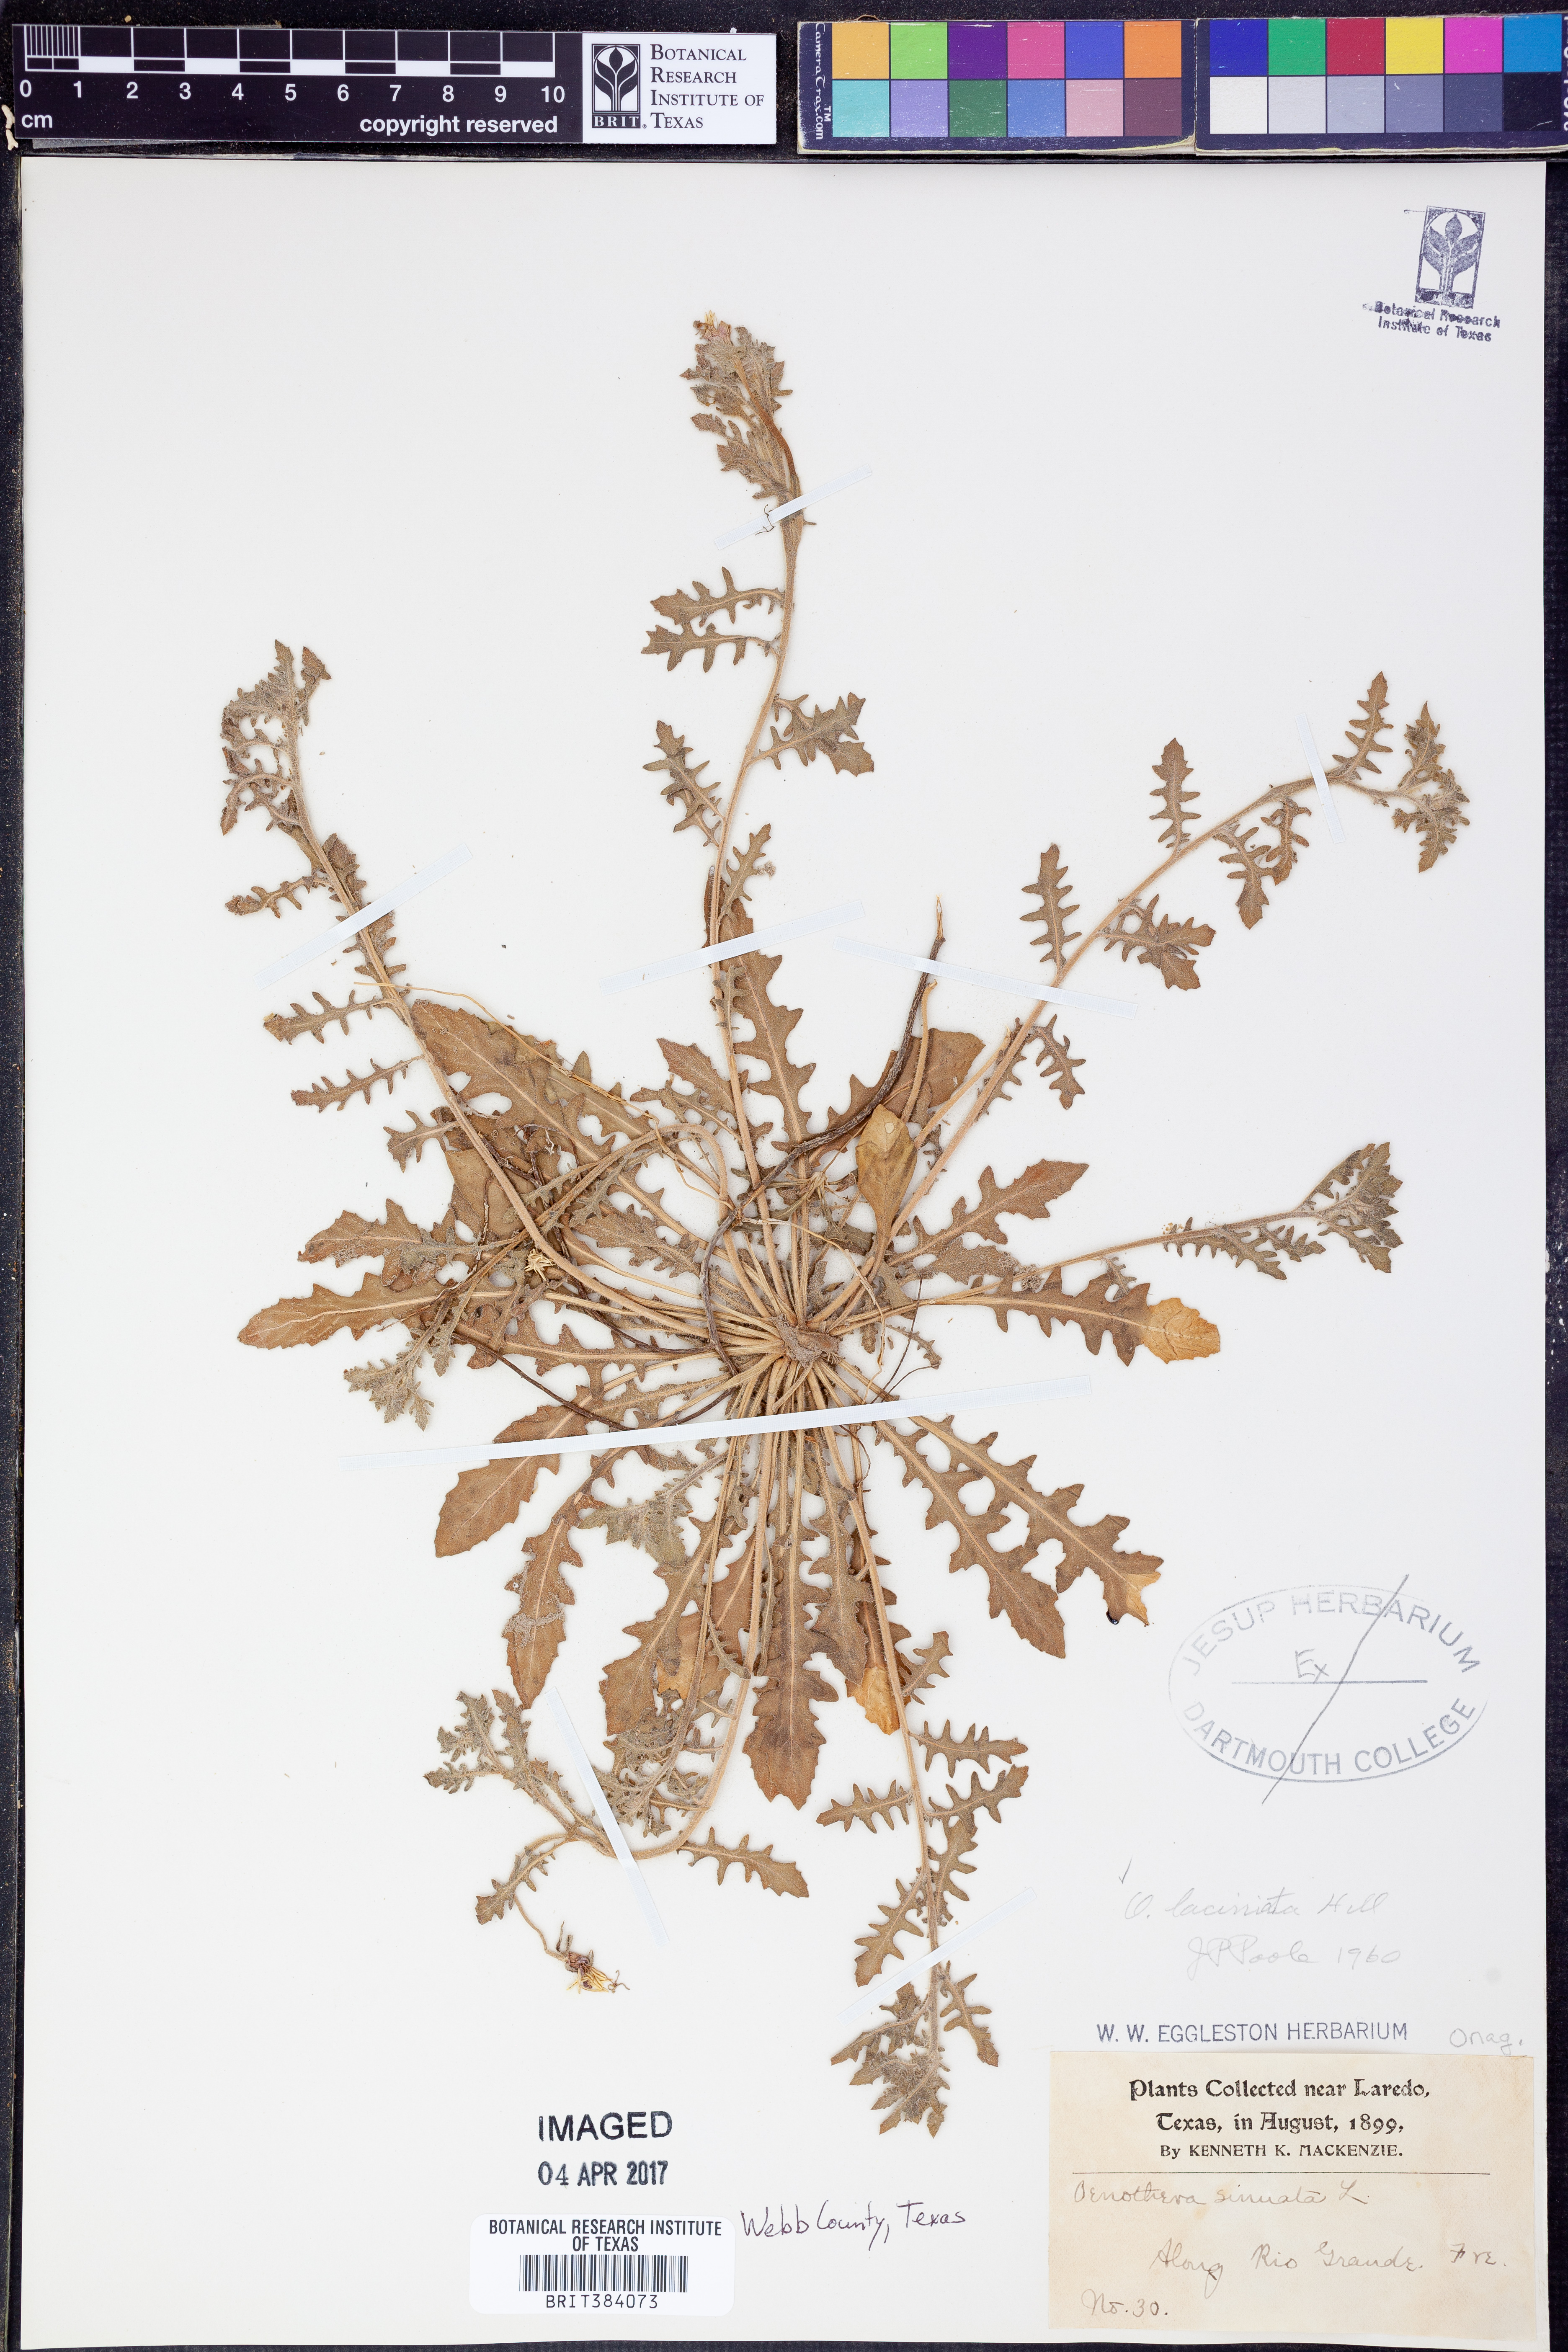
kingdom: Plantae
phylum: Tracheophyta
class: Magnoliopsida
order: Myrtales
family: Onagraceae
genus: Oenothera
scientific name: Oenothera laciniata
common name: Cut-leaved evening-primrose
